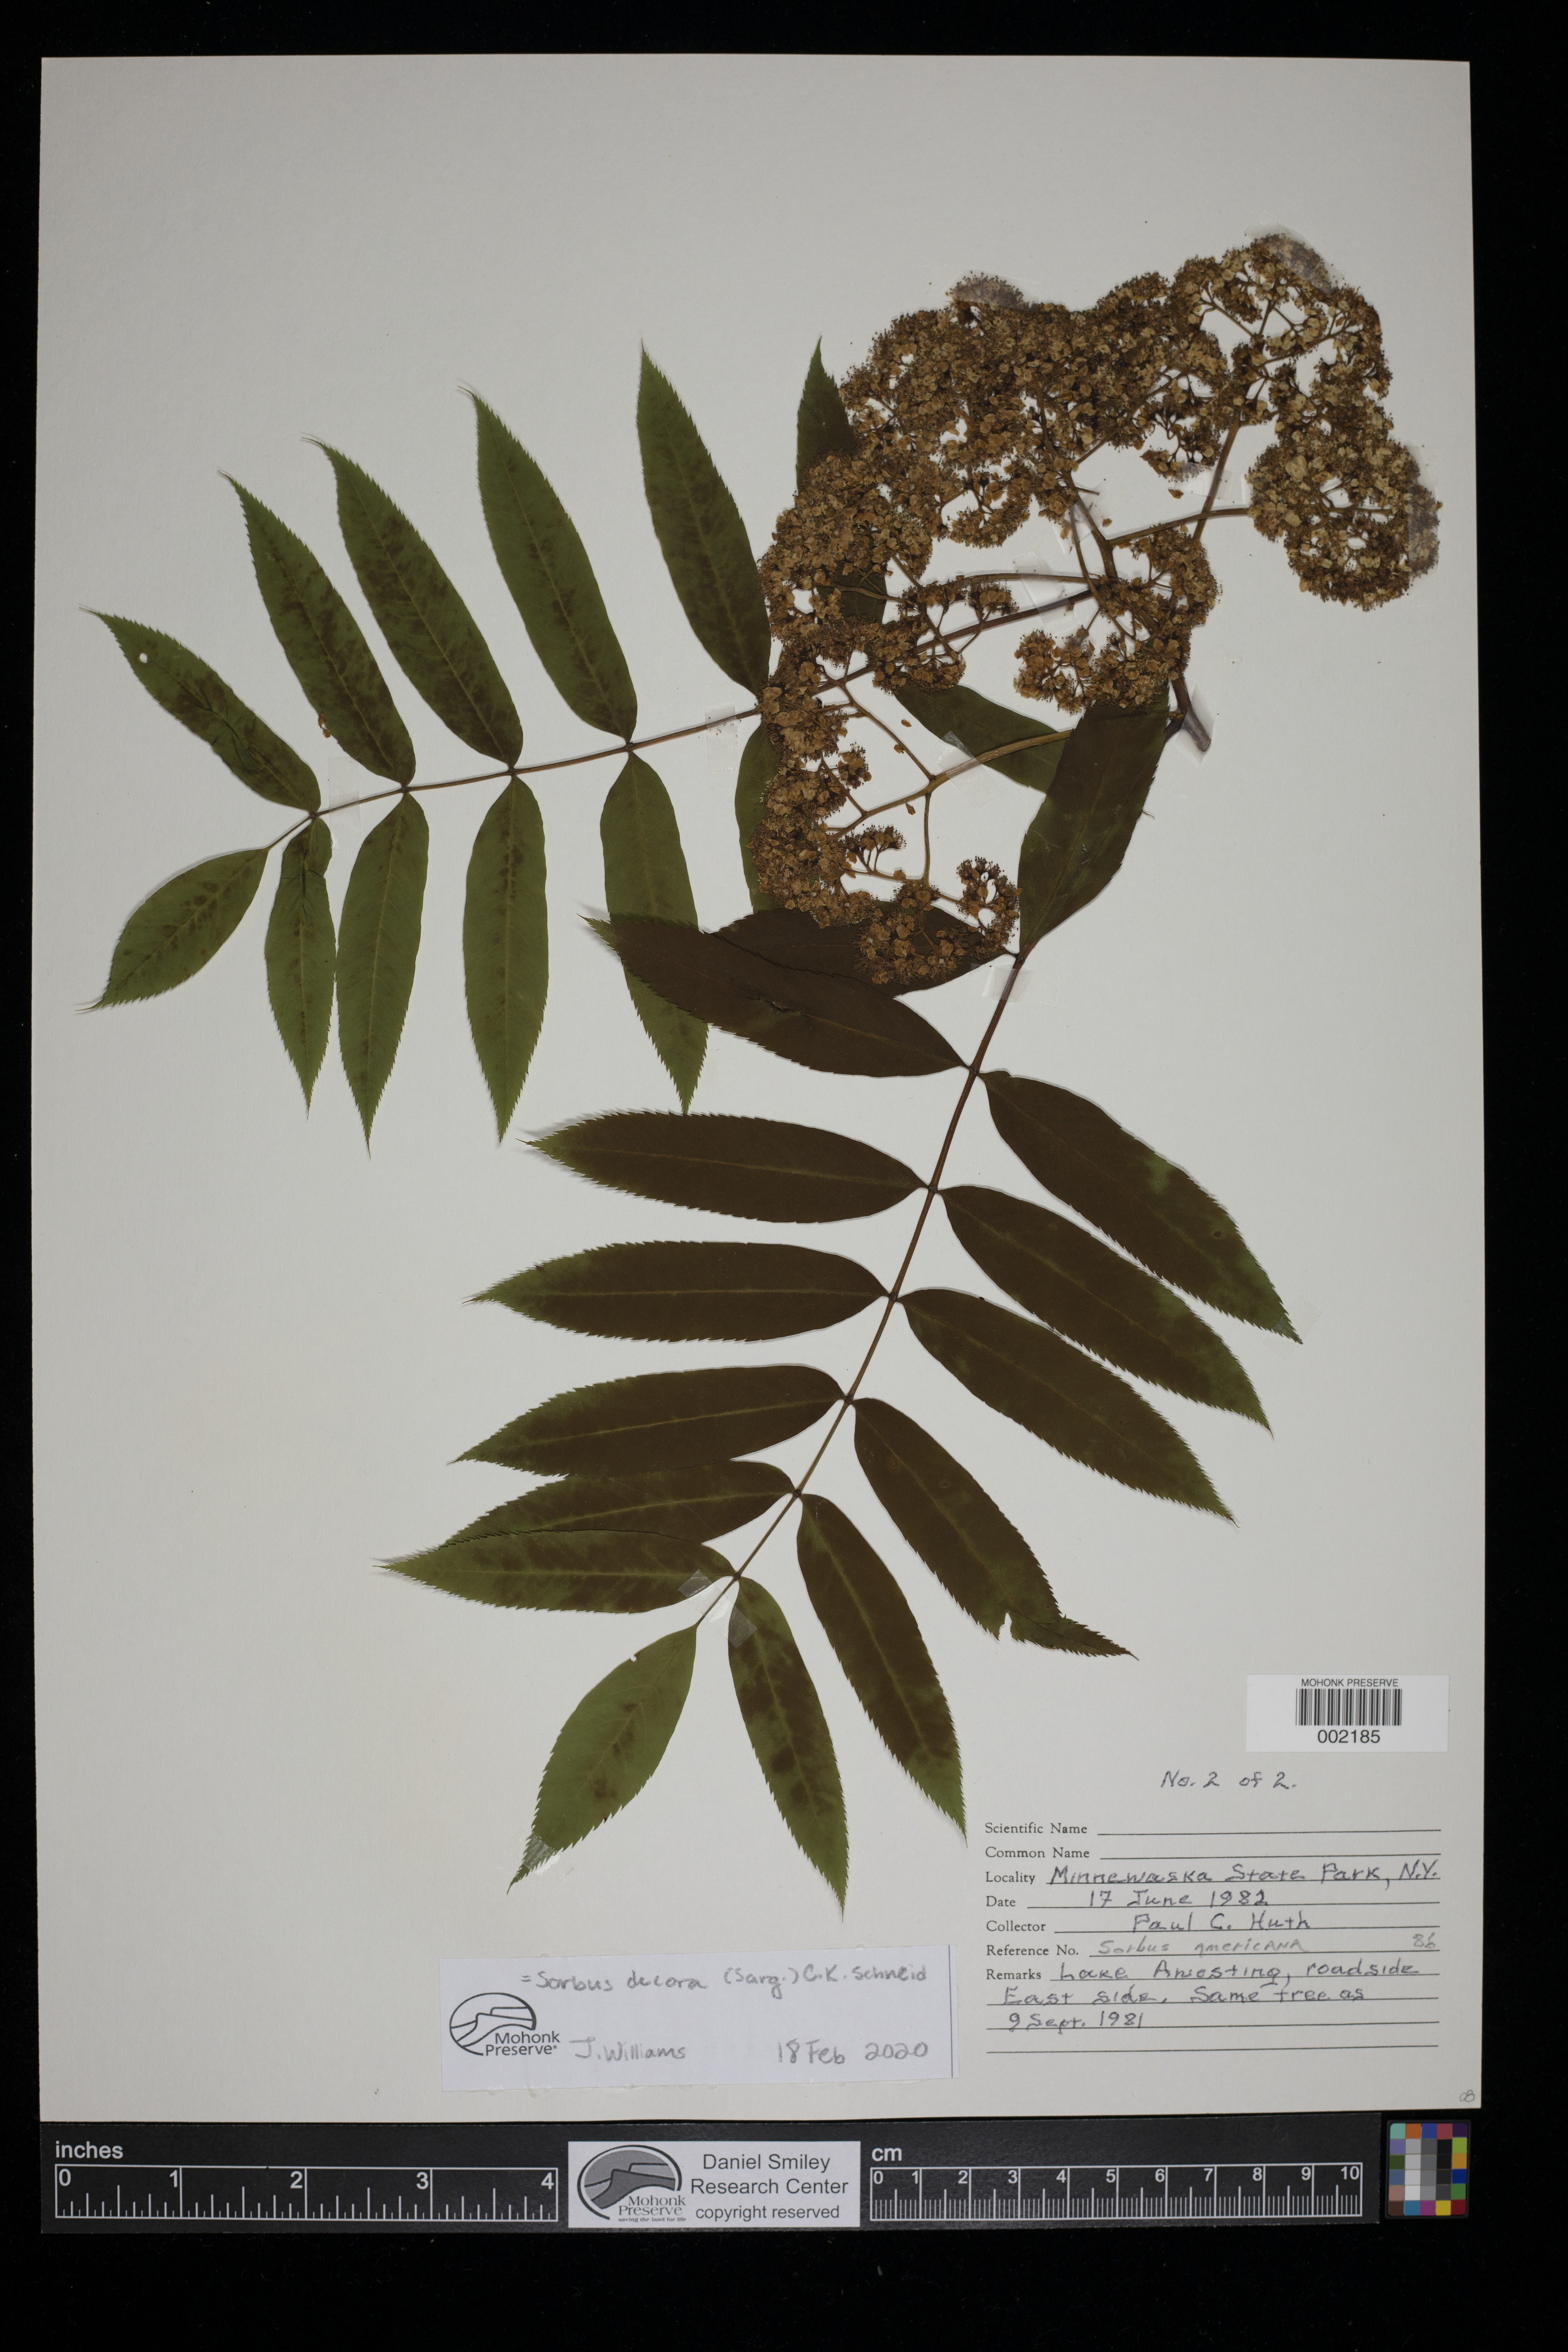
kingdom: Plantae
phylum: Tracheophyta
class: Magnoliopsida
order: Rosales
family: Rosaceae
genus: Sorbus
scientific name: Sorbus decora
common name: Northern mountain-ash
